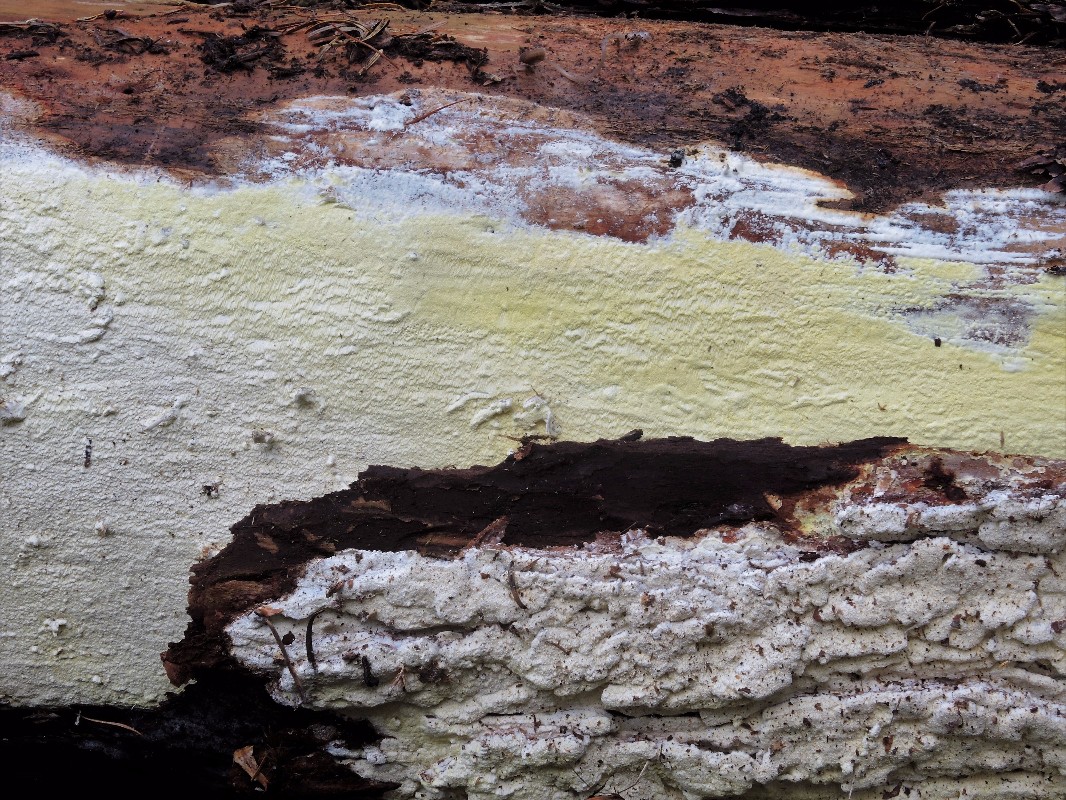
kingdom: Fungi
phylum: Basidiomycota
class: Agaricomycetes
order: Polyporales
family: Fomitopsidaceae
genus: Daedalea
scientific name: Daedalea xantha
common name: gul sejporesvamp
